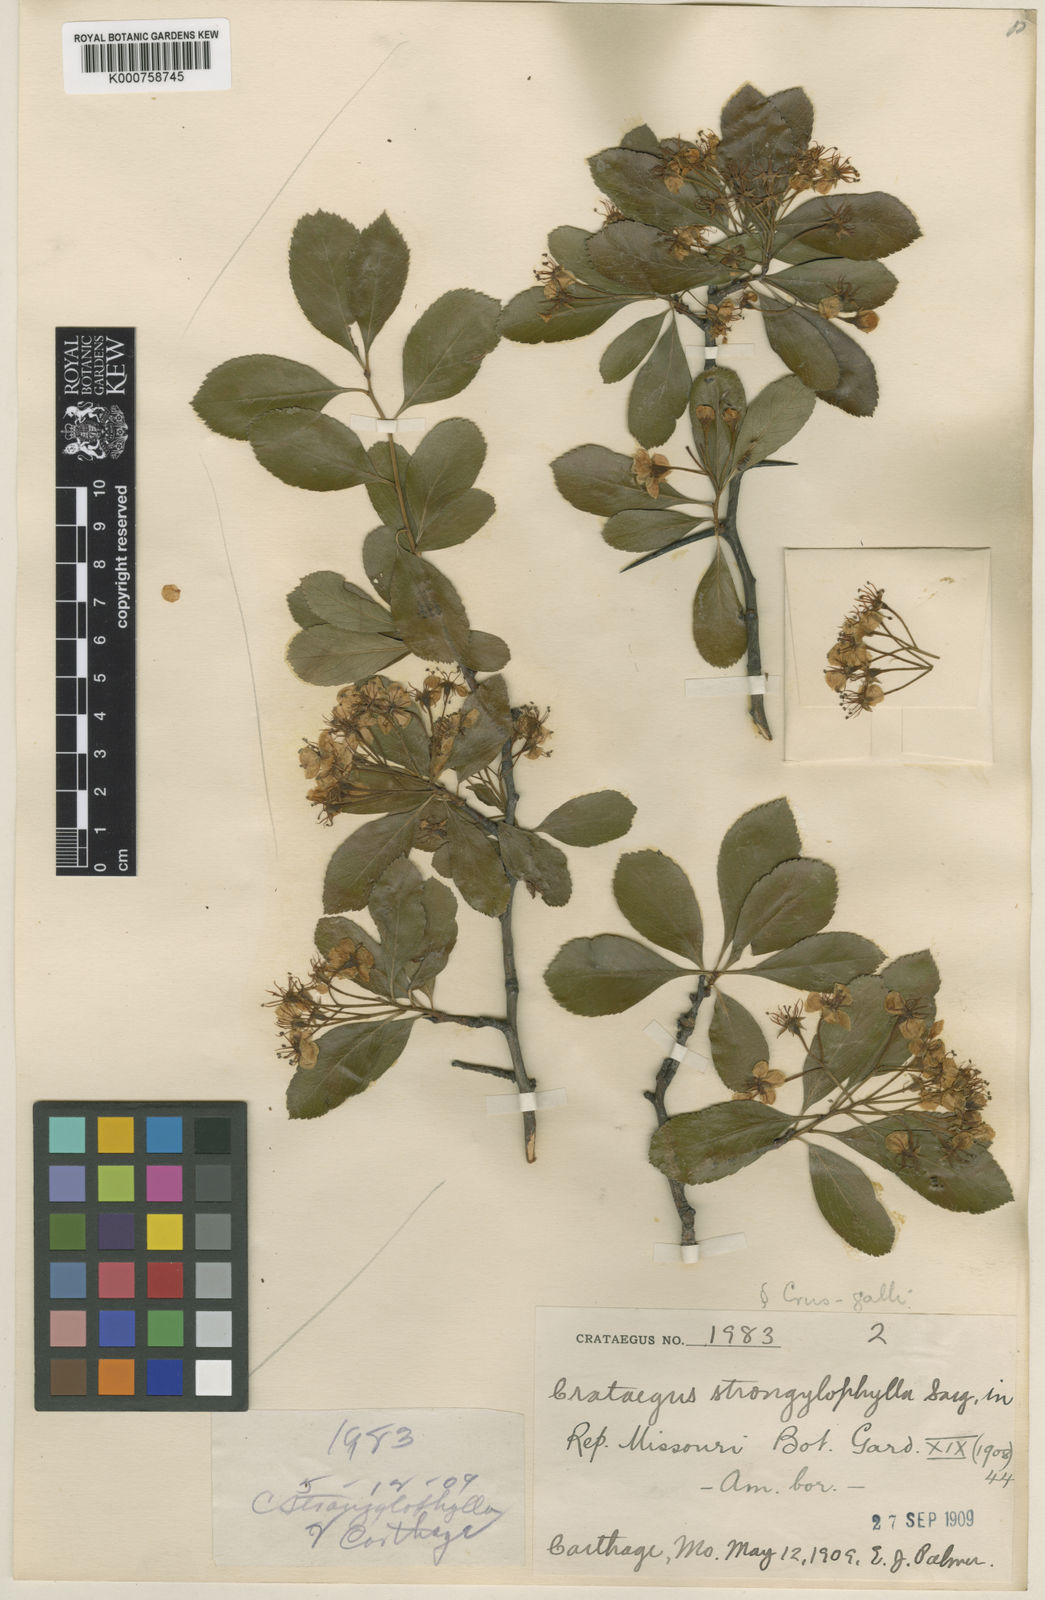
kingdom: Plantae
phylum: Tracheophyta
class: Magnoliopsida
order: Rosales
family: Rosaceae
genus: Crataegus
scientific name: Crataegus strongylophylla
